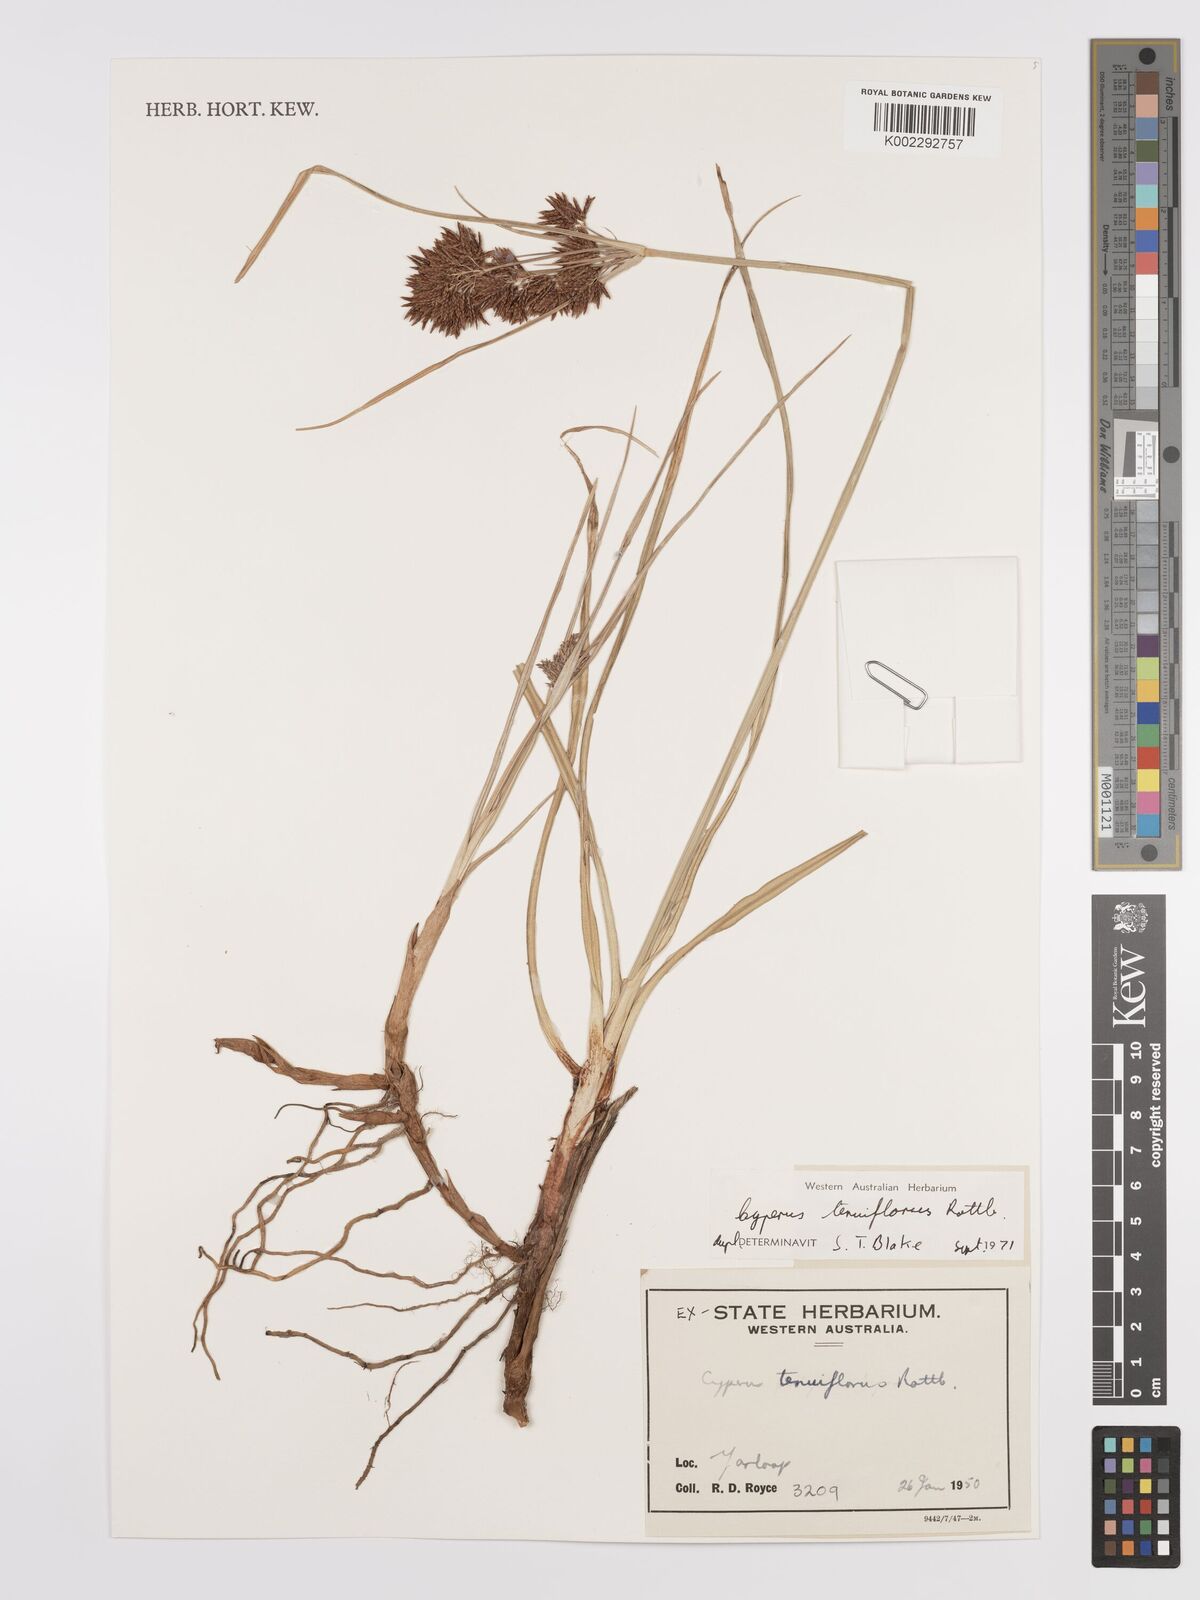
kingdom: Plantae
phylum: Tracheophyta
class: Liliopsida
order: Poales
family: Cyperaceae
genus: Cyperus
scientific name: Cyperus longus
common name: Galingale
